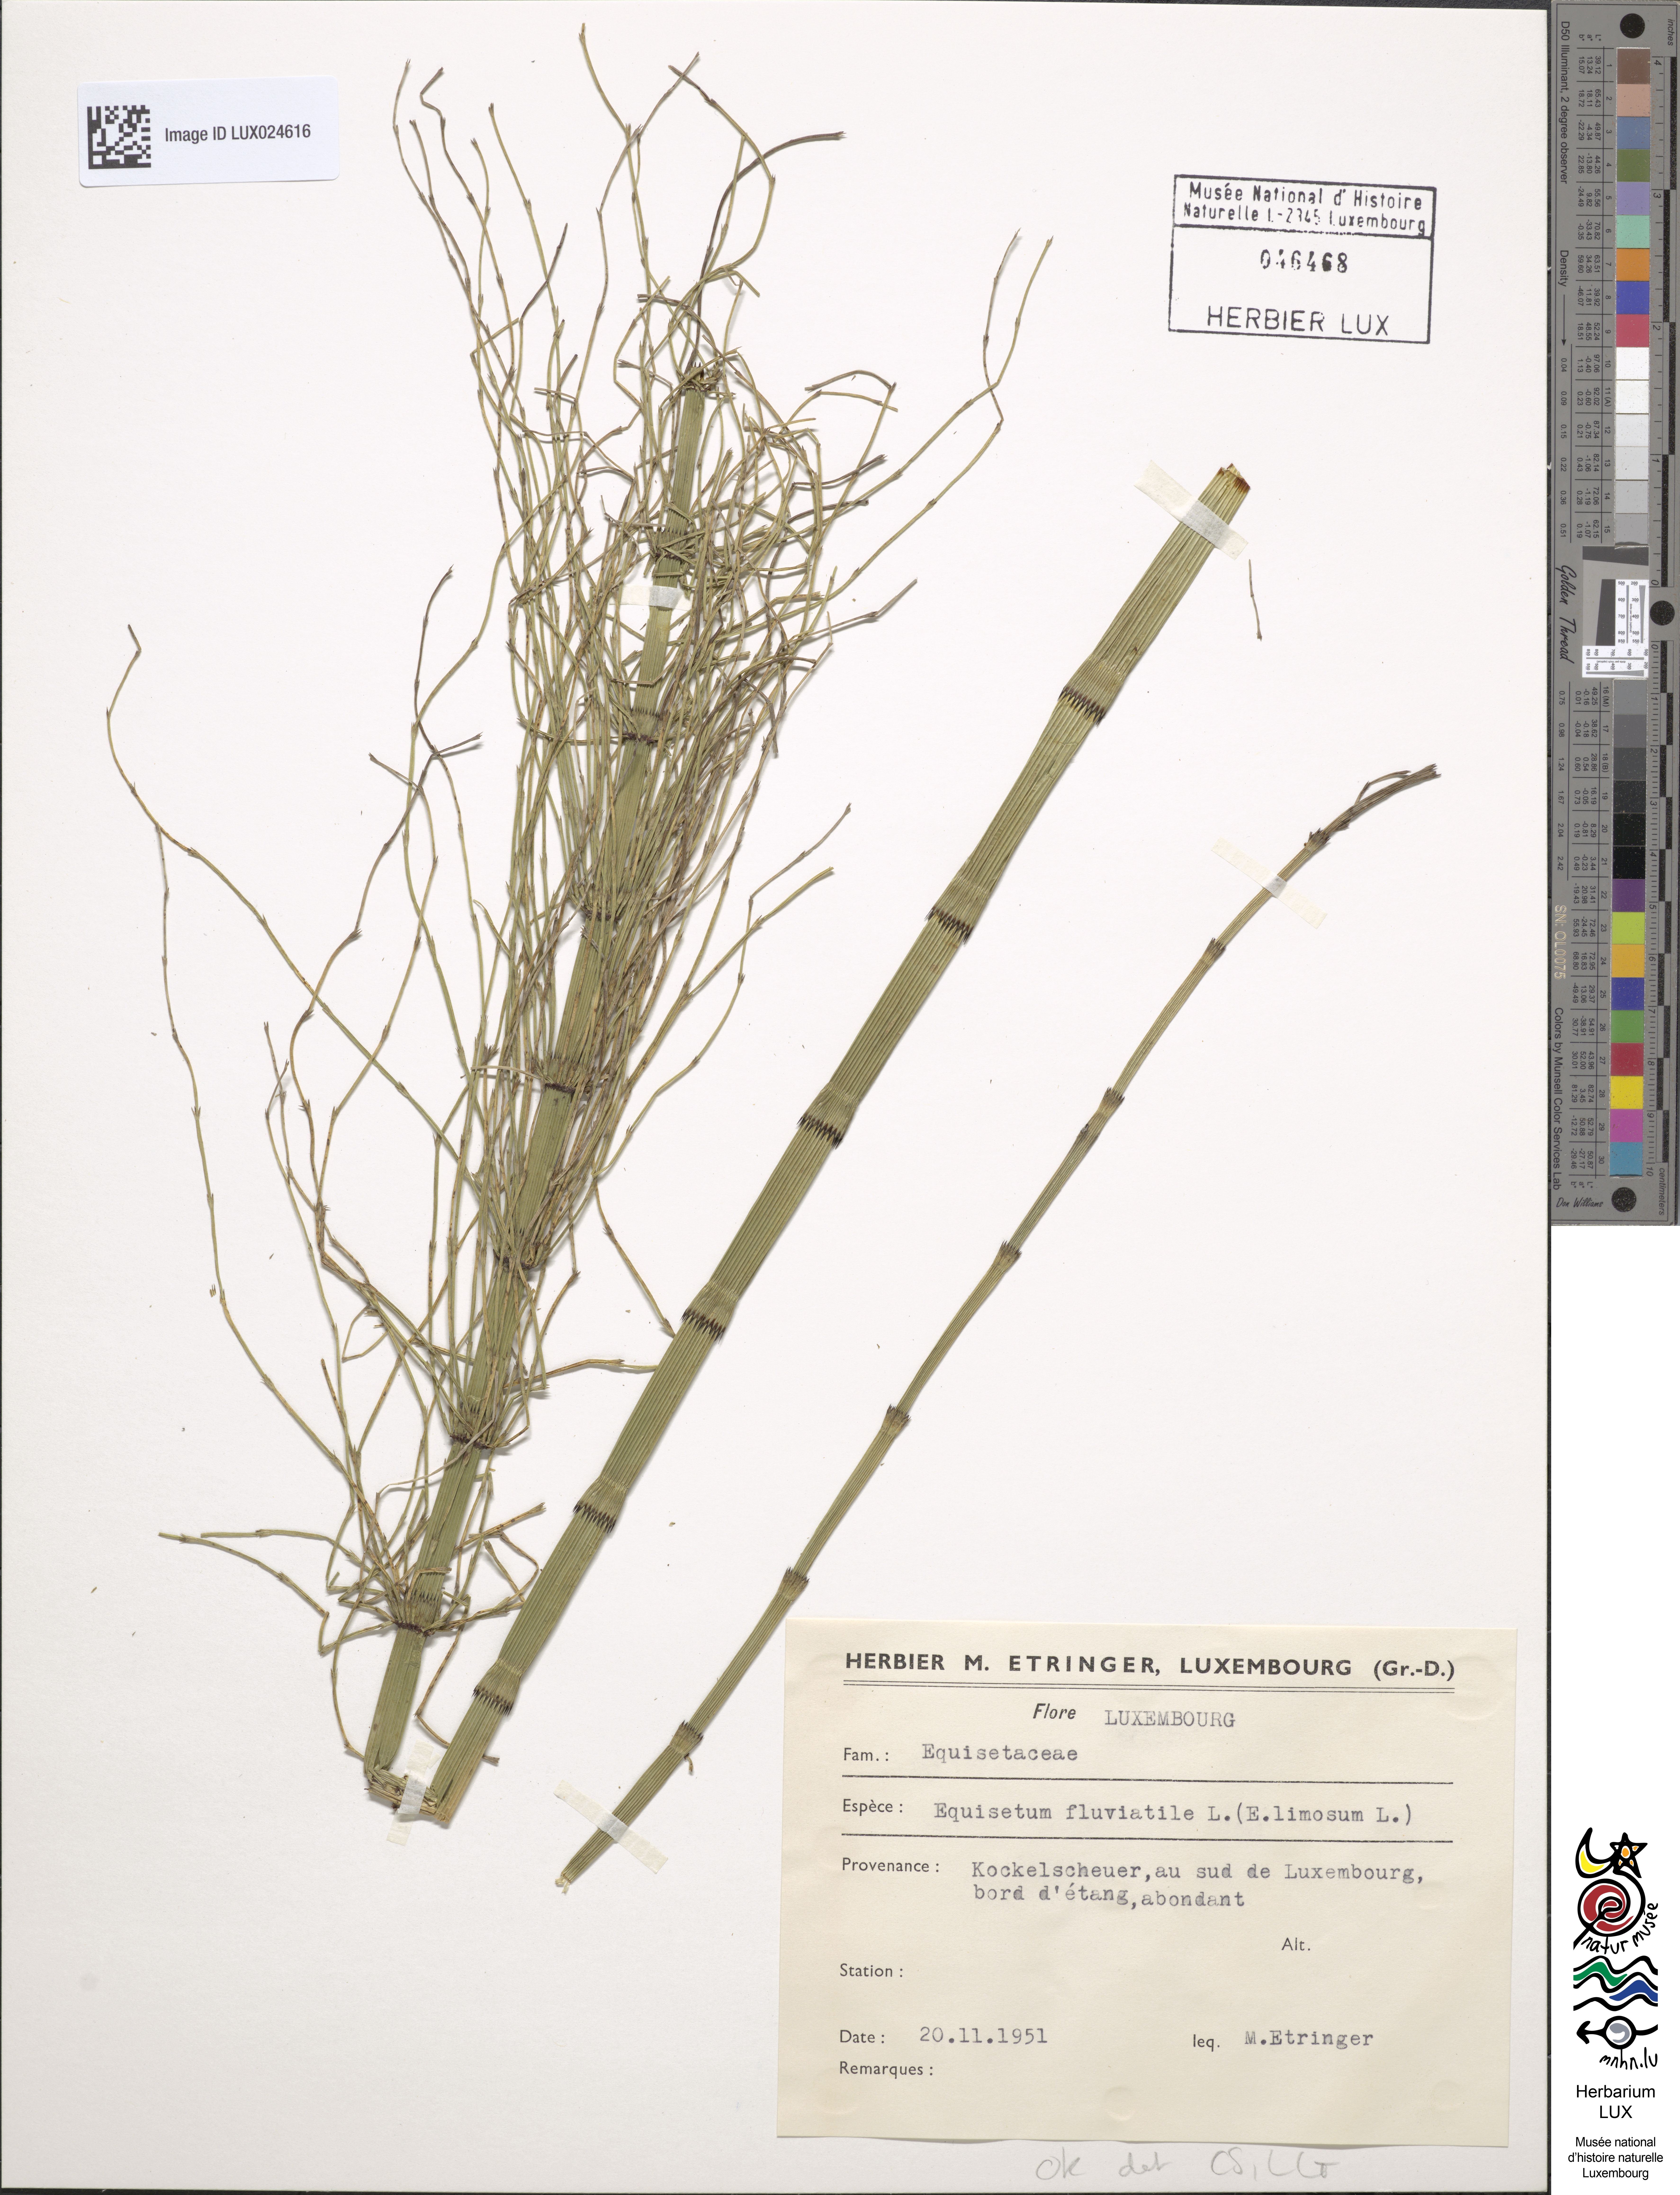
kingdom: Plantae
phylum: Tracheophyta
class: Polypodiopsida
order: Equisetales
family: Equisetaceae
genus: Equisetum
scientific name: Equisetum fluviatile
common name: Water horsetail
